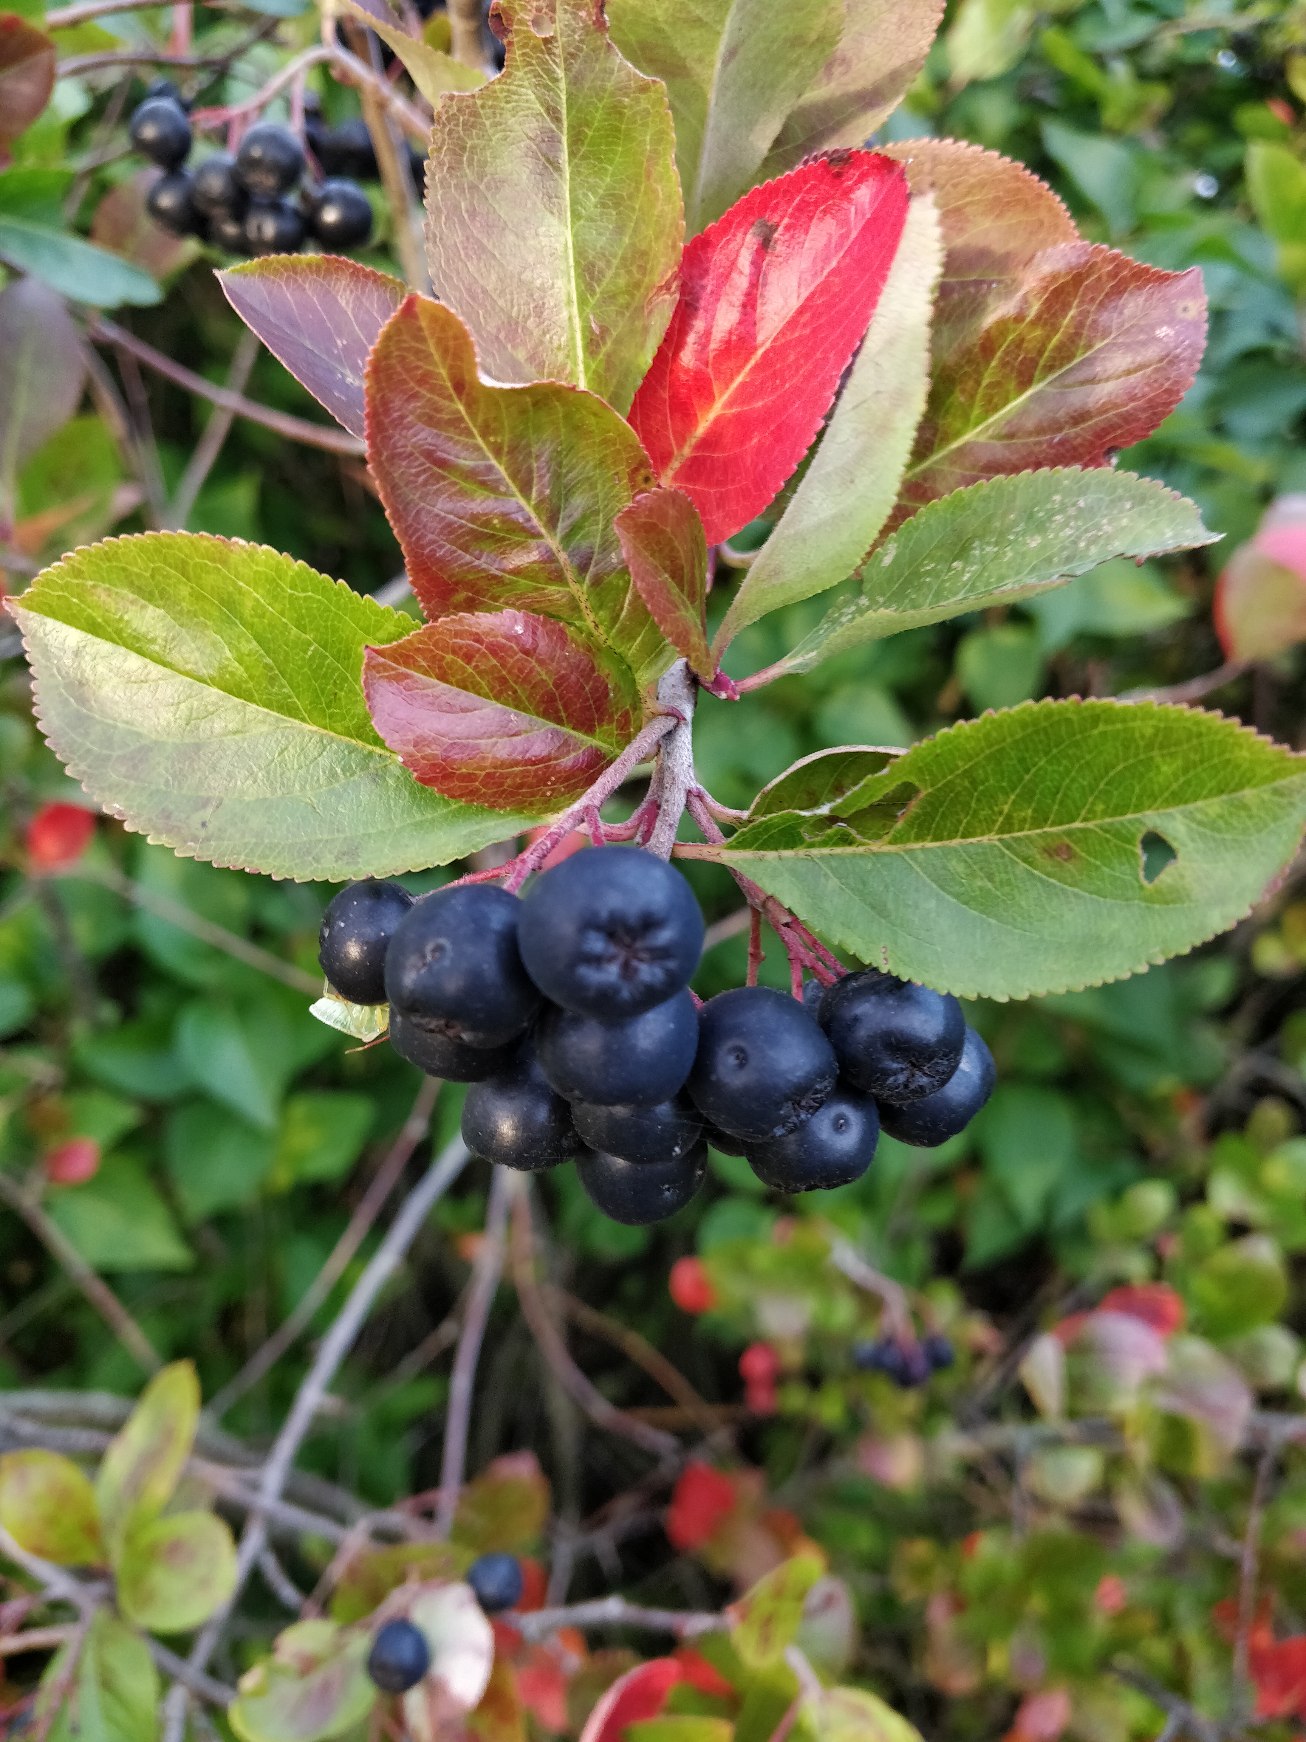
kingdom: Plantae
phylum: Tracheophyta
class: Magnoliopsida
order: Rosales
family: Rosaceae
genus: Aronia
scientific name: Aronia melanocarpa
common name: Sortfrugtet surbær
